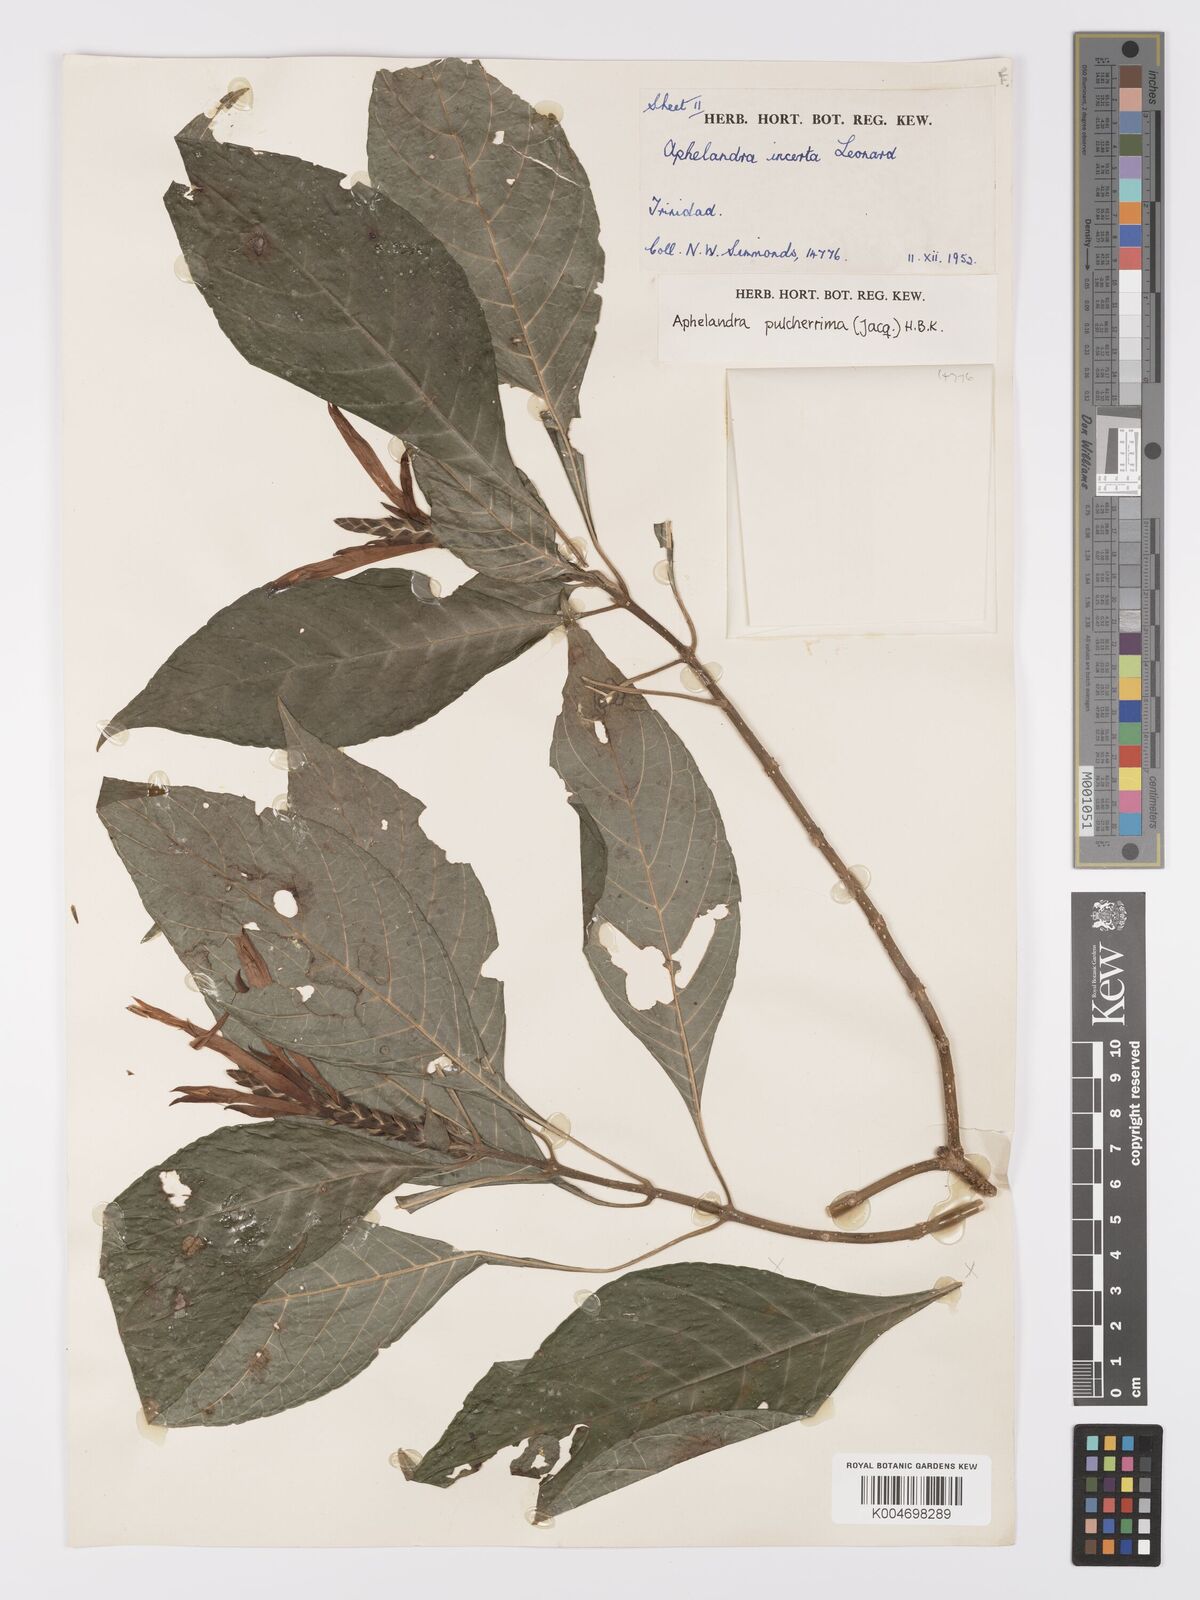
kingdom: Plantae
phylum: Tracheophyta
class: Magnoliopsida
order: Lamiales
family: Acanthaceae
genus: Aphelandra
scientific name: Aphelandra
